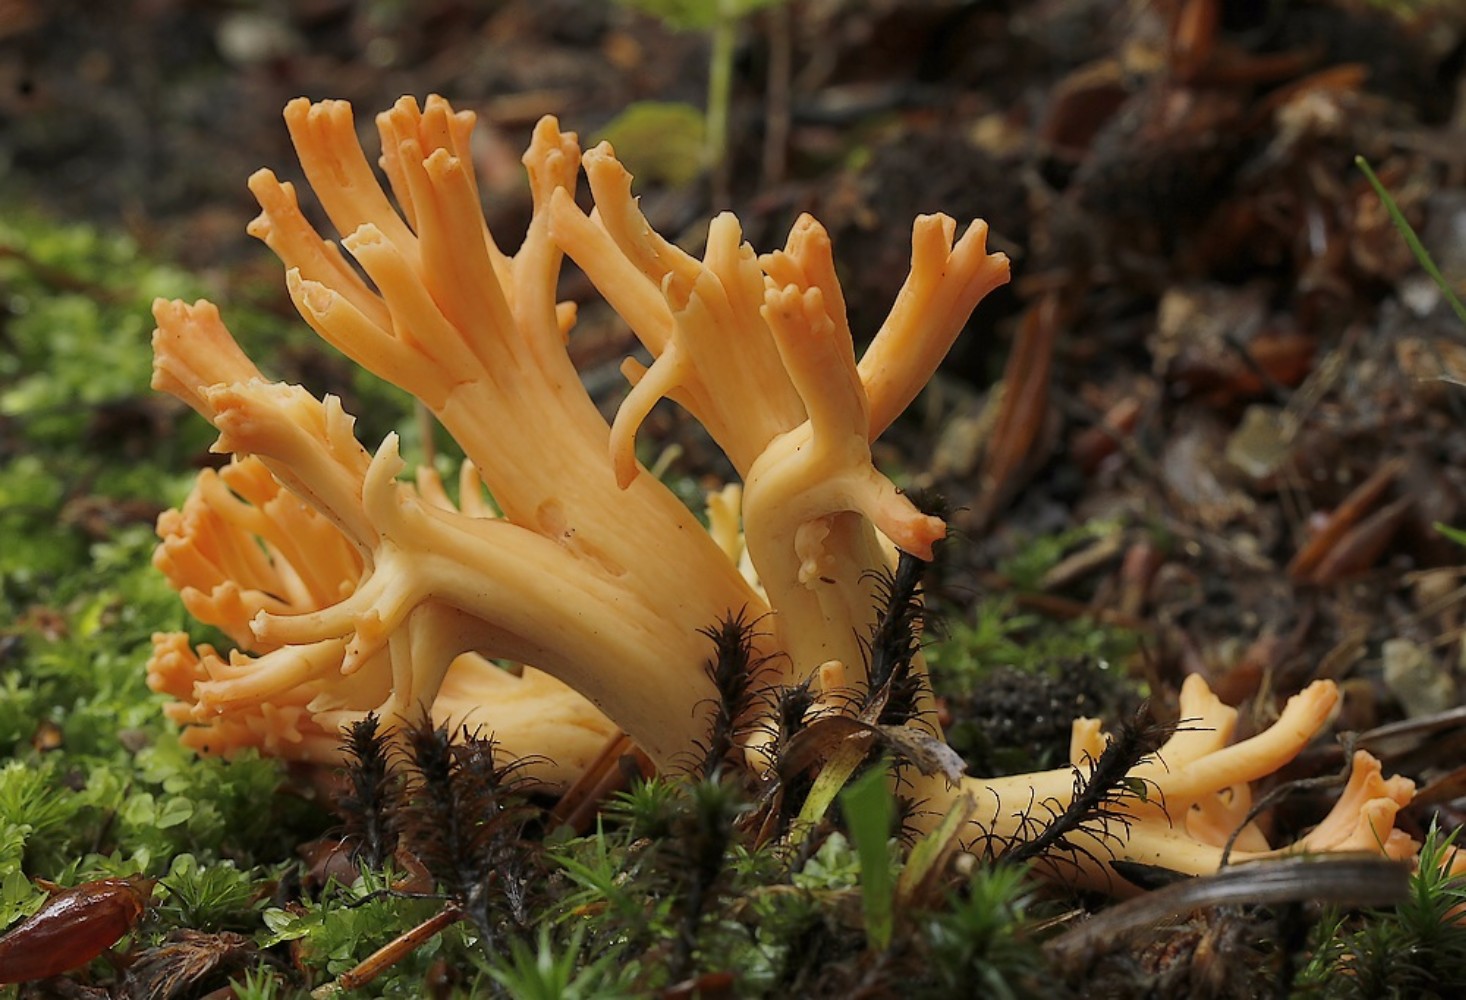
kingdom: Fungi
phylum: Basidiomycota
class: Agaricomycetes
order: Gomphales
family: Gomphaceae
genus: Ramaria
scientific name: Ramaria fagetorum
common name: abrikos-koralsvamp
